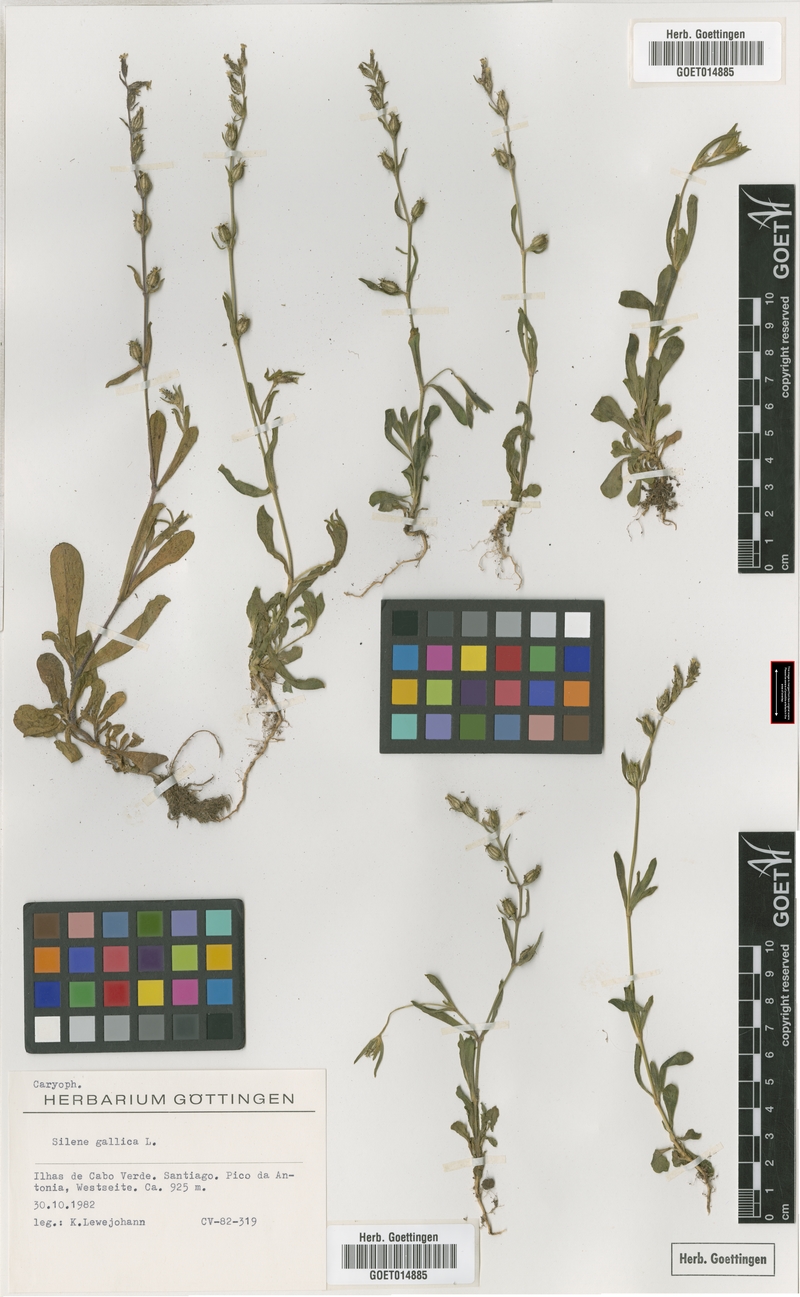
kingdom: Plantae
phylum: Tracheophyta
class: Magnoliopsida
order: Caryophyllales
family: Caryophyllaceae
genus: Silene
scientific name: Silene gallica
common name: Small-flowered catchfly
